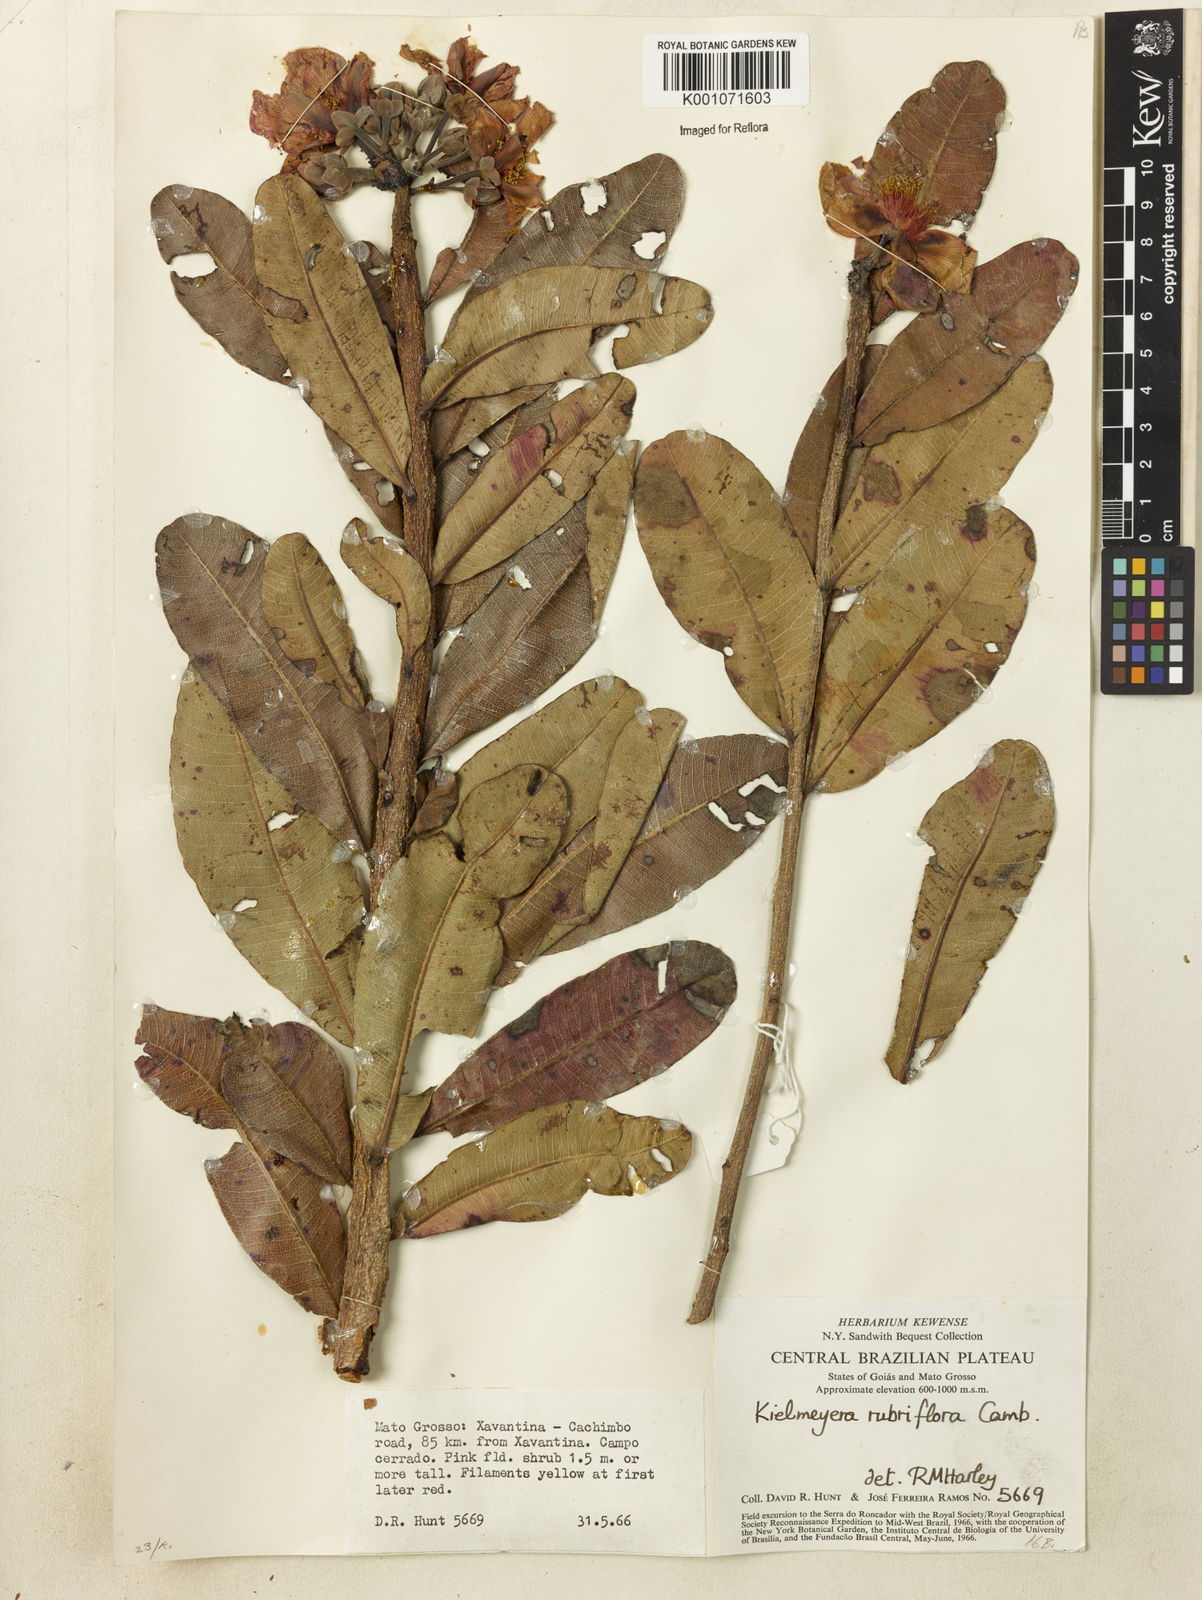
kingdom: Plantae
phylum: Tracheophyta
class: Magnoliopsida
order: Malpighiales
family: Calophyllaceae
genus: Kielmeyera
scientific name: Kielmeyera rubriflora
